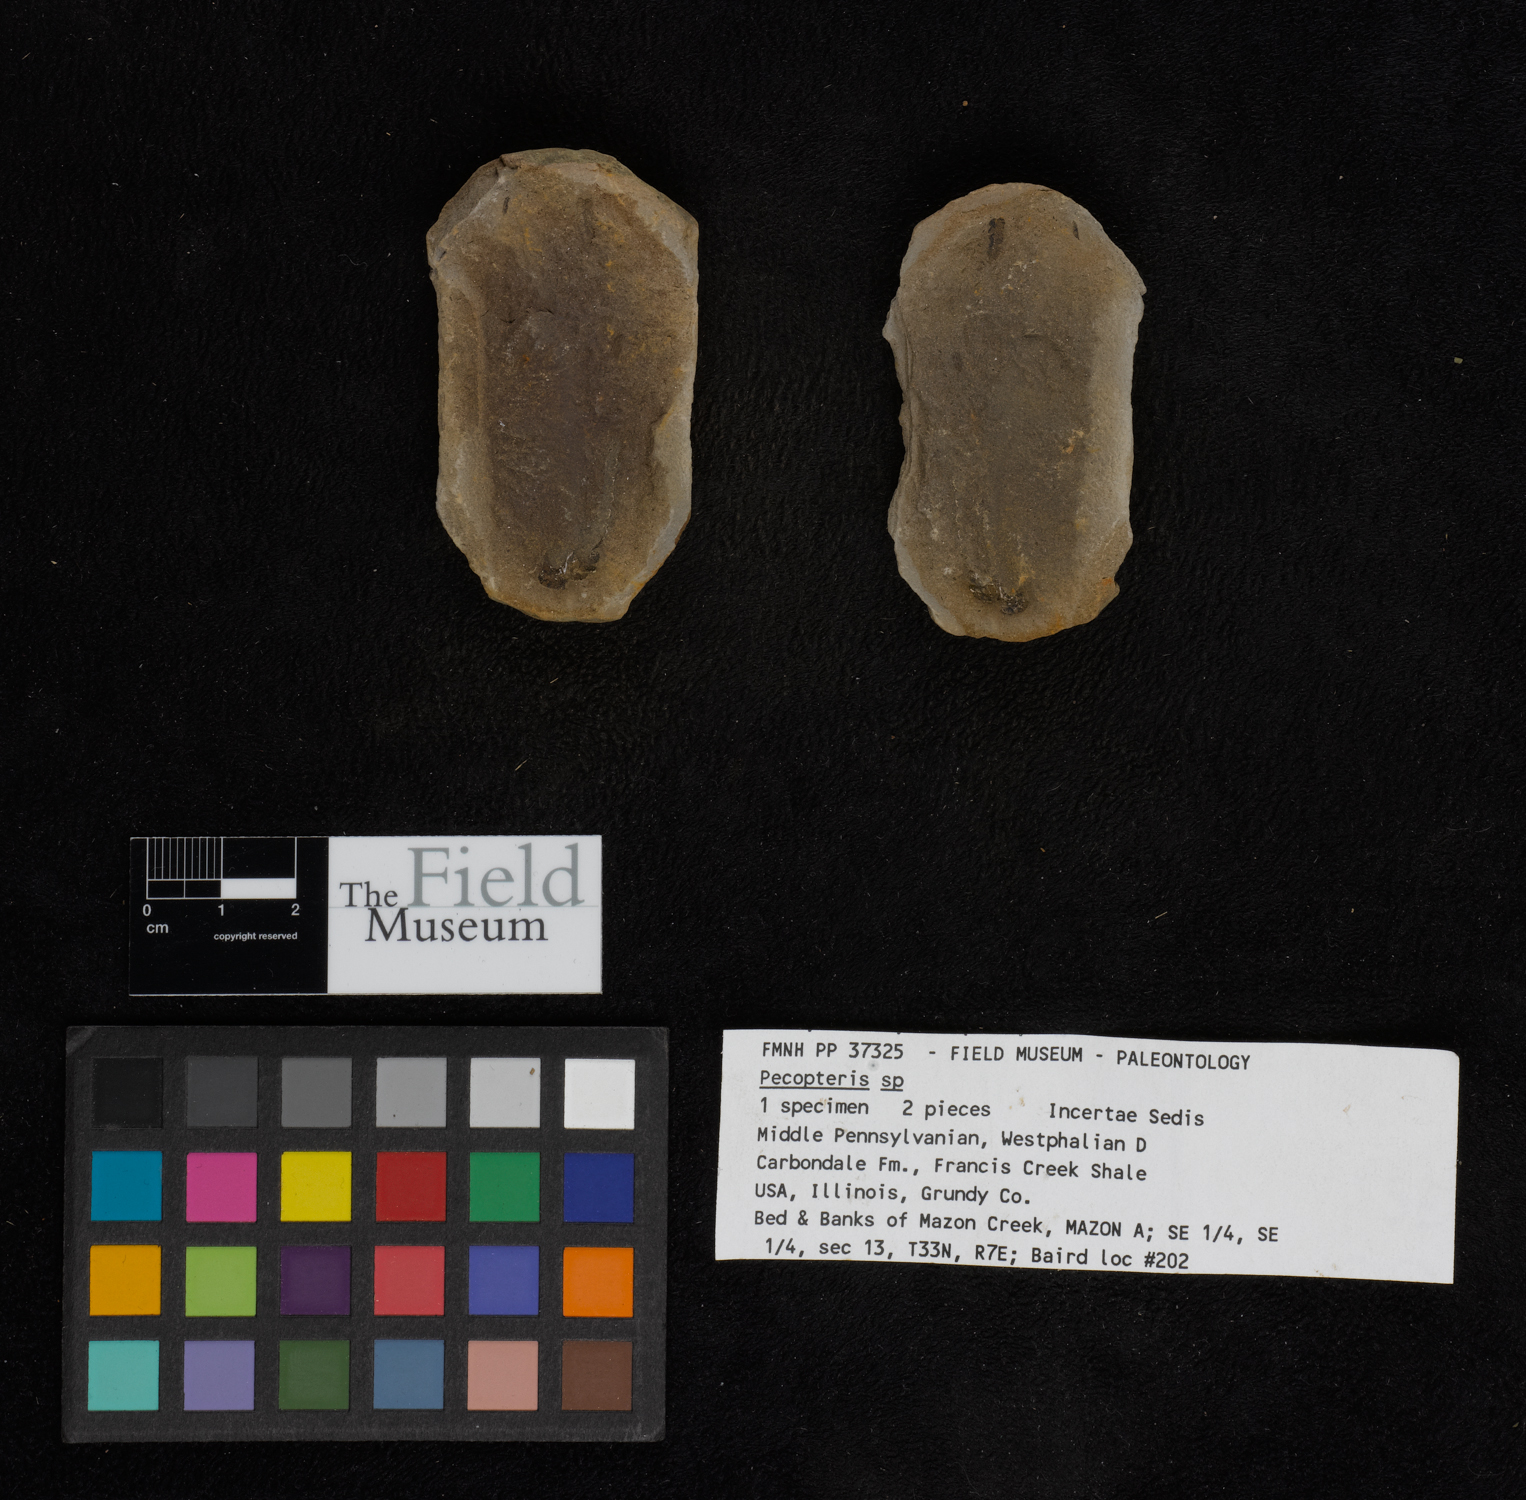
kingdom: Plantae
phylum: Tracheophyta
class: Polypodiopsida
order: Marattiales
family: Asterothecaceae
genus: Pecopteris
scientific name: Pecopteris
